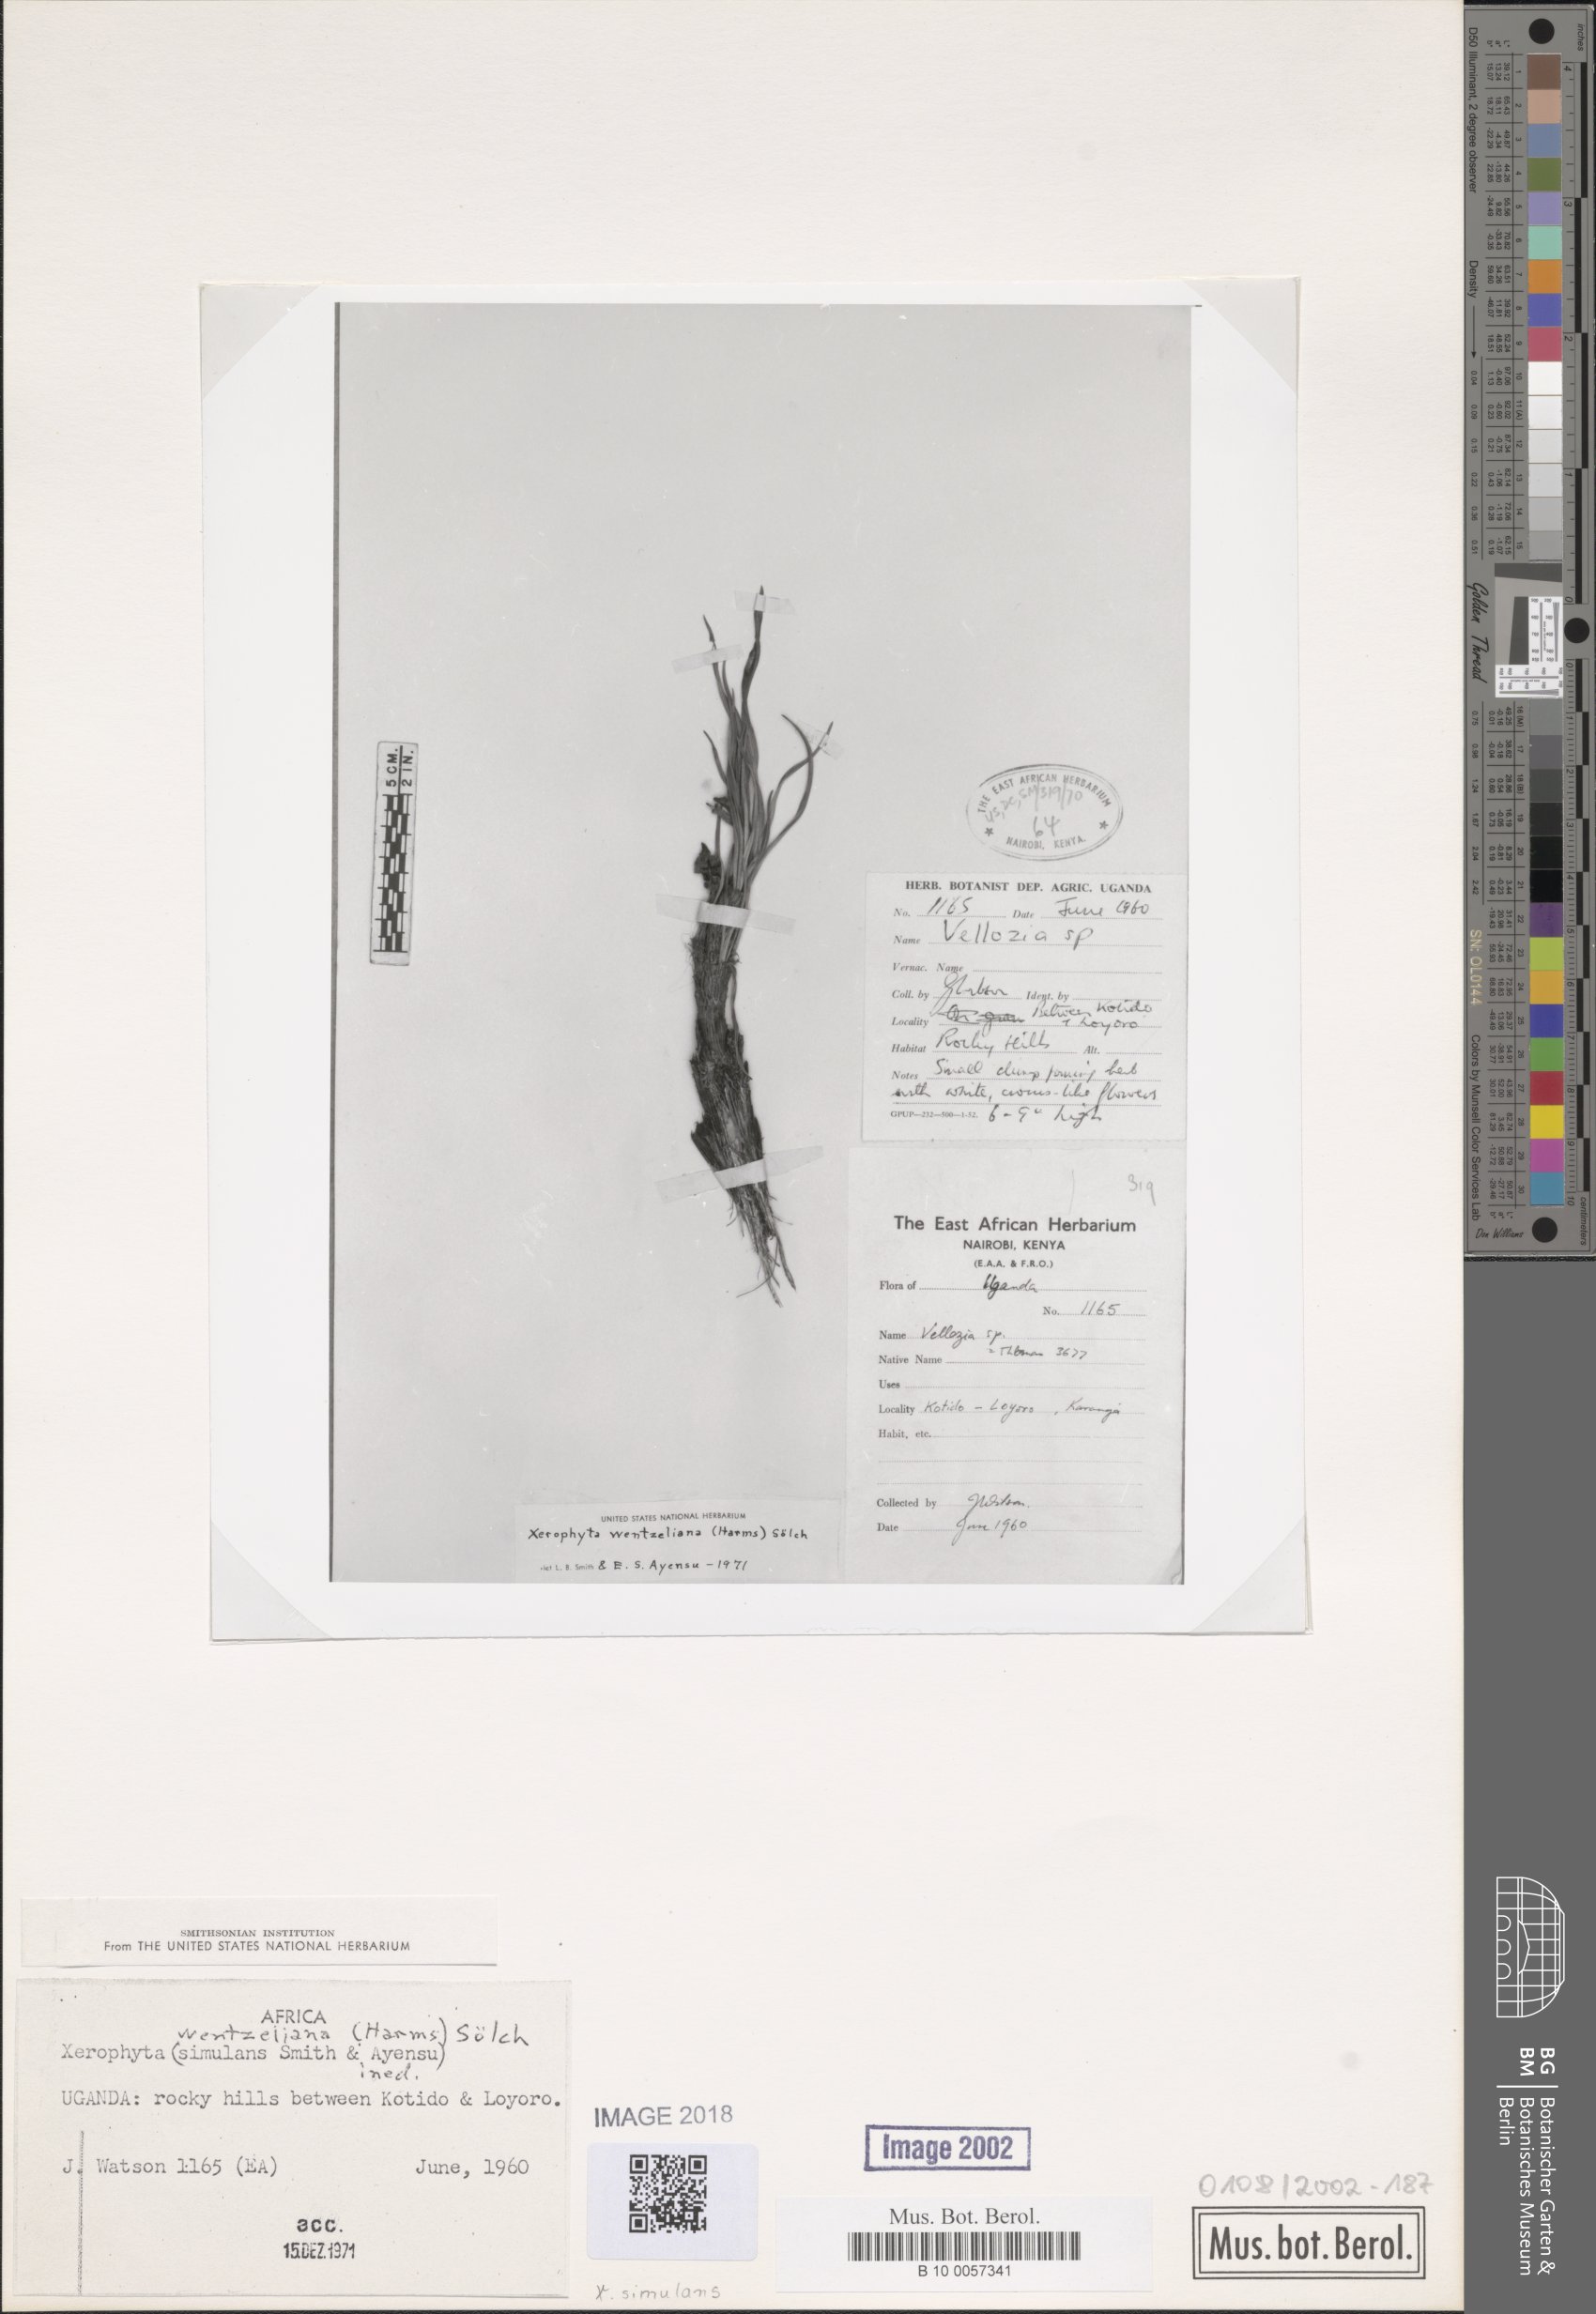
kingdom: Plantae
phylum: Tracheophyta
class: Liliopsida
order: Pandanales
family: Velloziaceae
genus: Xerophyta
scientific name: Xerophyta simulans
